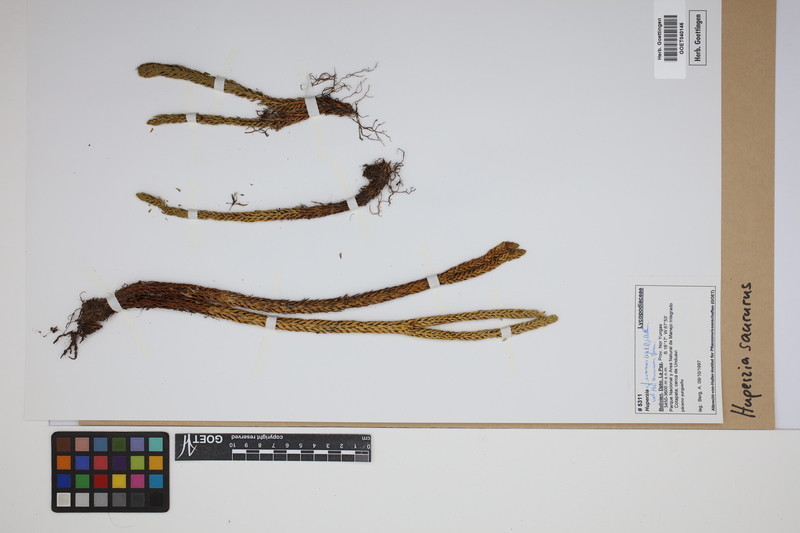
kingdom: Plantae
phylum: Tracheophyta
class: Lycopodiopsida
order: Lycopodiales
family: Lycopodiaceae
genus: Phlegmariurus
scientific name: Phlegmariurus saururus
